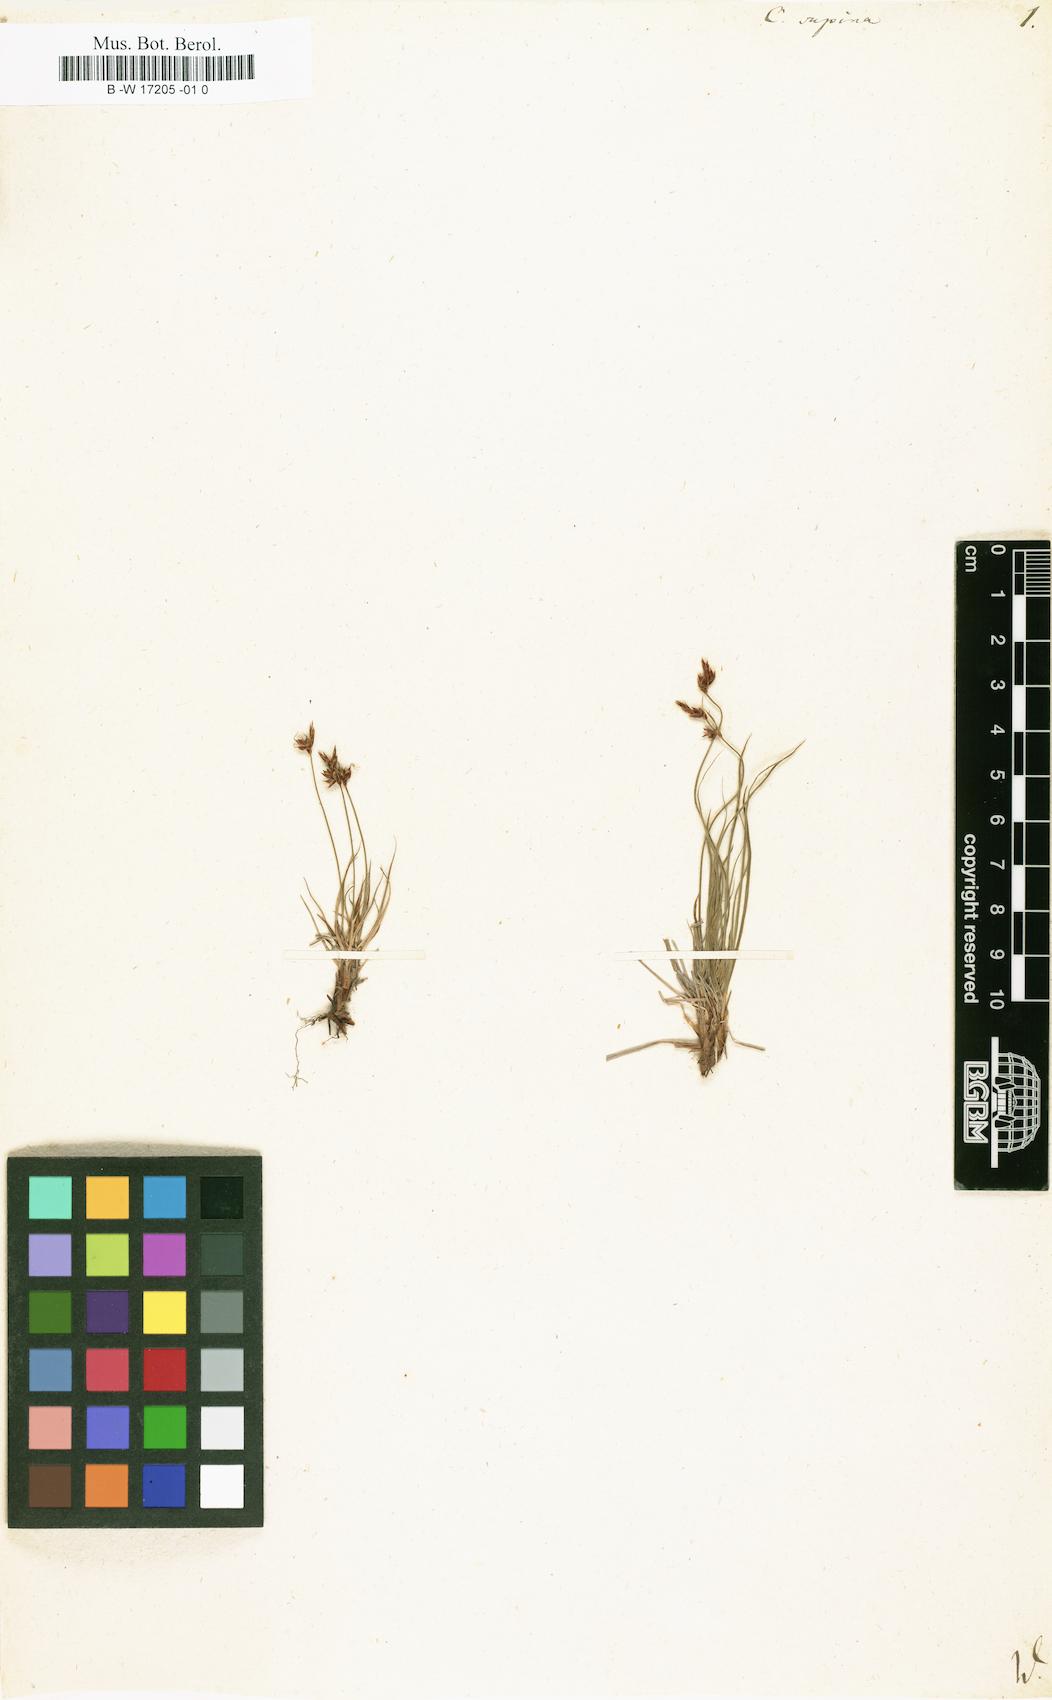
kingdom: Plantae
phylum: Tracheophyta
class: Liliopsida
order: Poales
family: Cyperaceae
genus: Carex
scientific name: Carex supina
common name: Lying-back sedge
